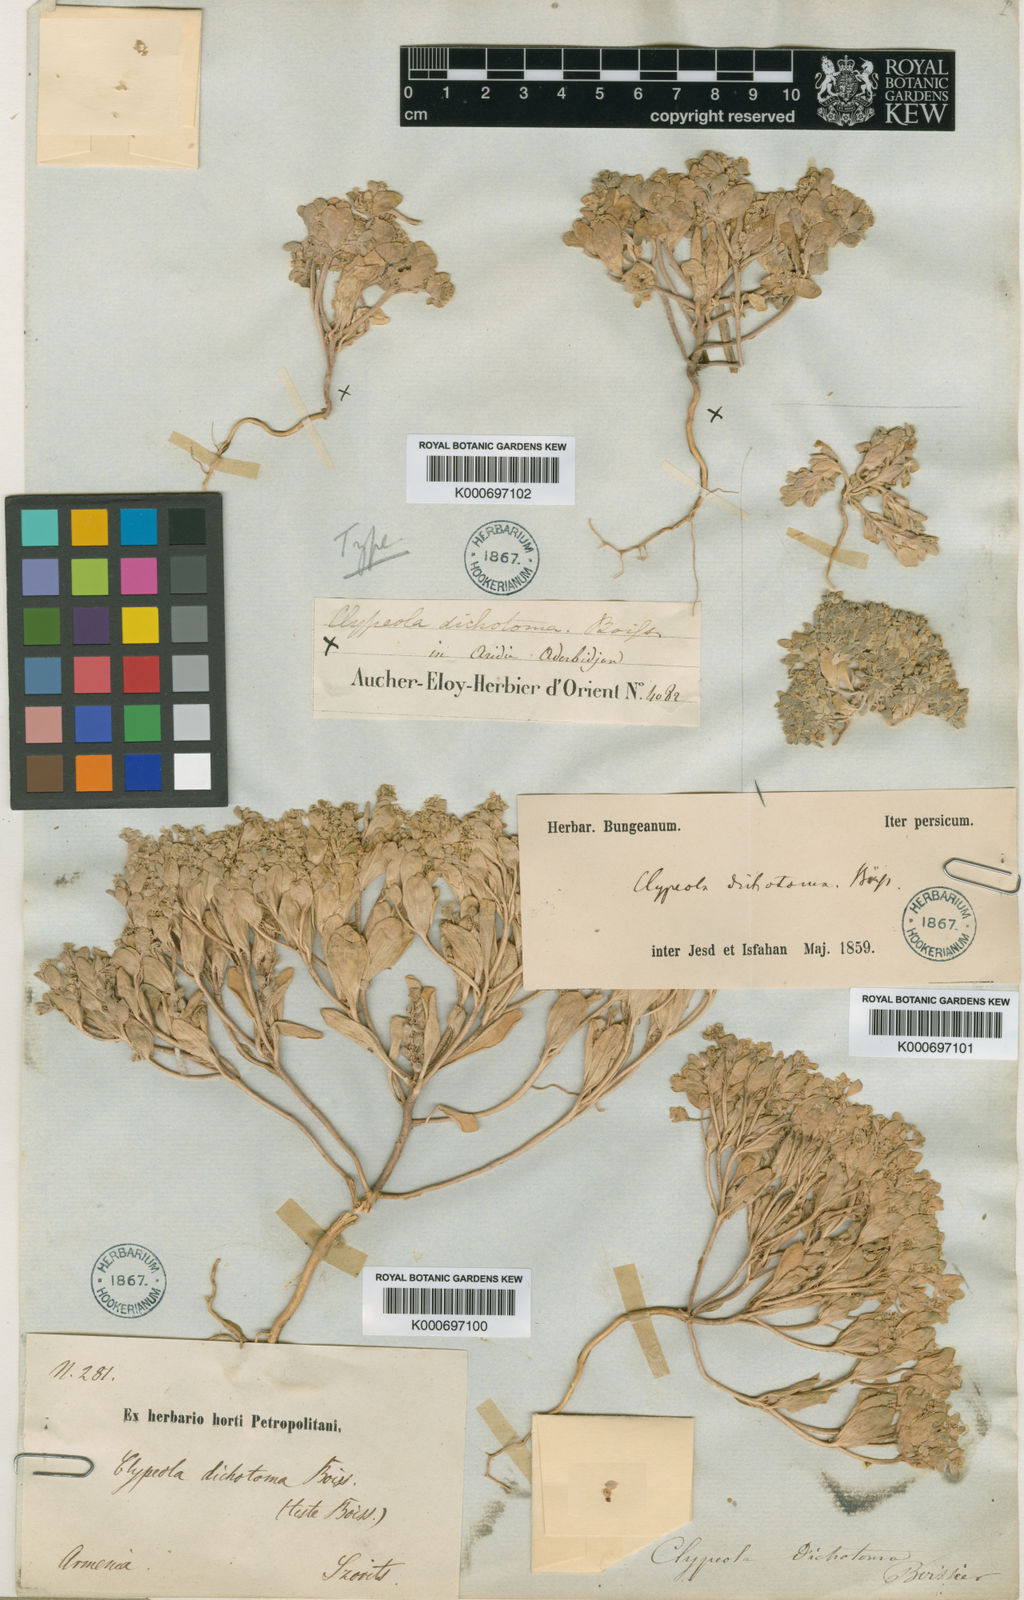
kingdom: Plantae
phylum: Tracheophyta
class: Magnoliopsida
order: Brassicales
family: Brassicaceae
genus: Clypeola
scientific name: Clypeola dichotoma
